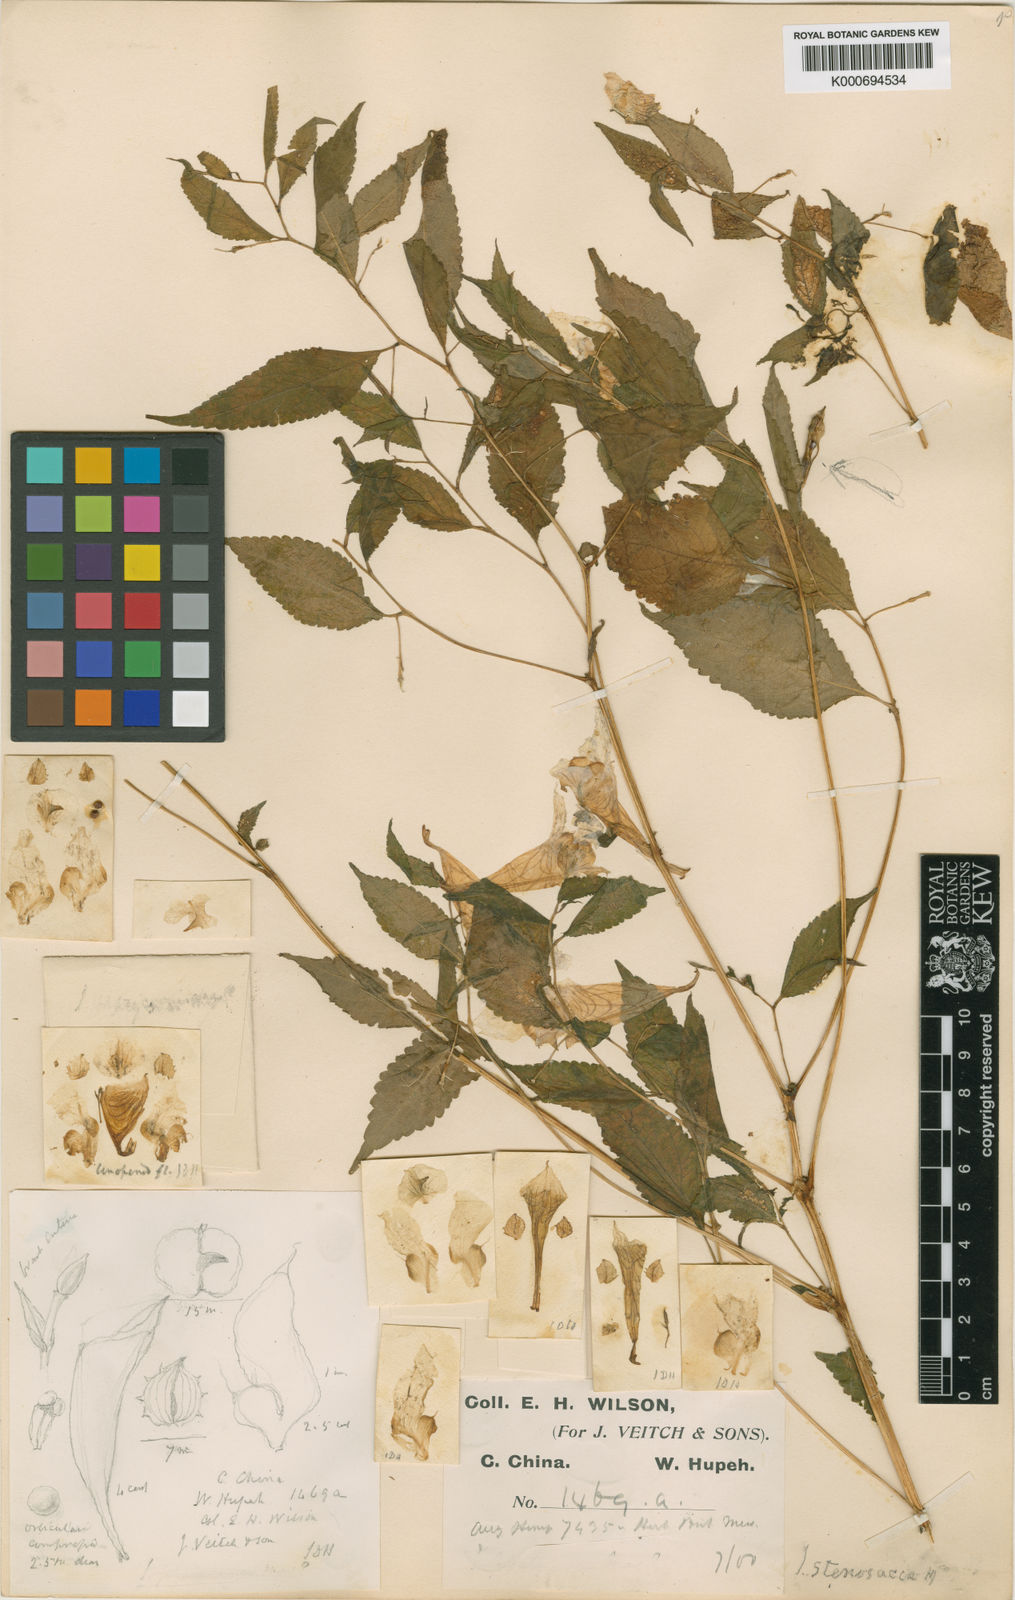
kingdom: Plantae
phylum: Tracheophyta
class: Magnoliopsida
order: Ericales
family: Balsaminaceae
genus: Impatiens
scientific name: Impatiens
